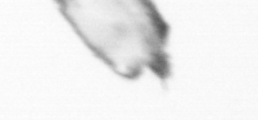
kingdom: Animalia
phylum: Arthropoda
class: Copepoda
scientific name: Copepoda
